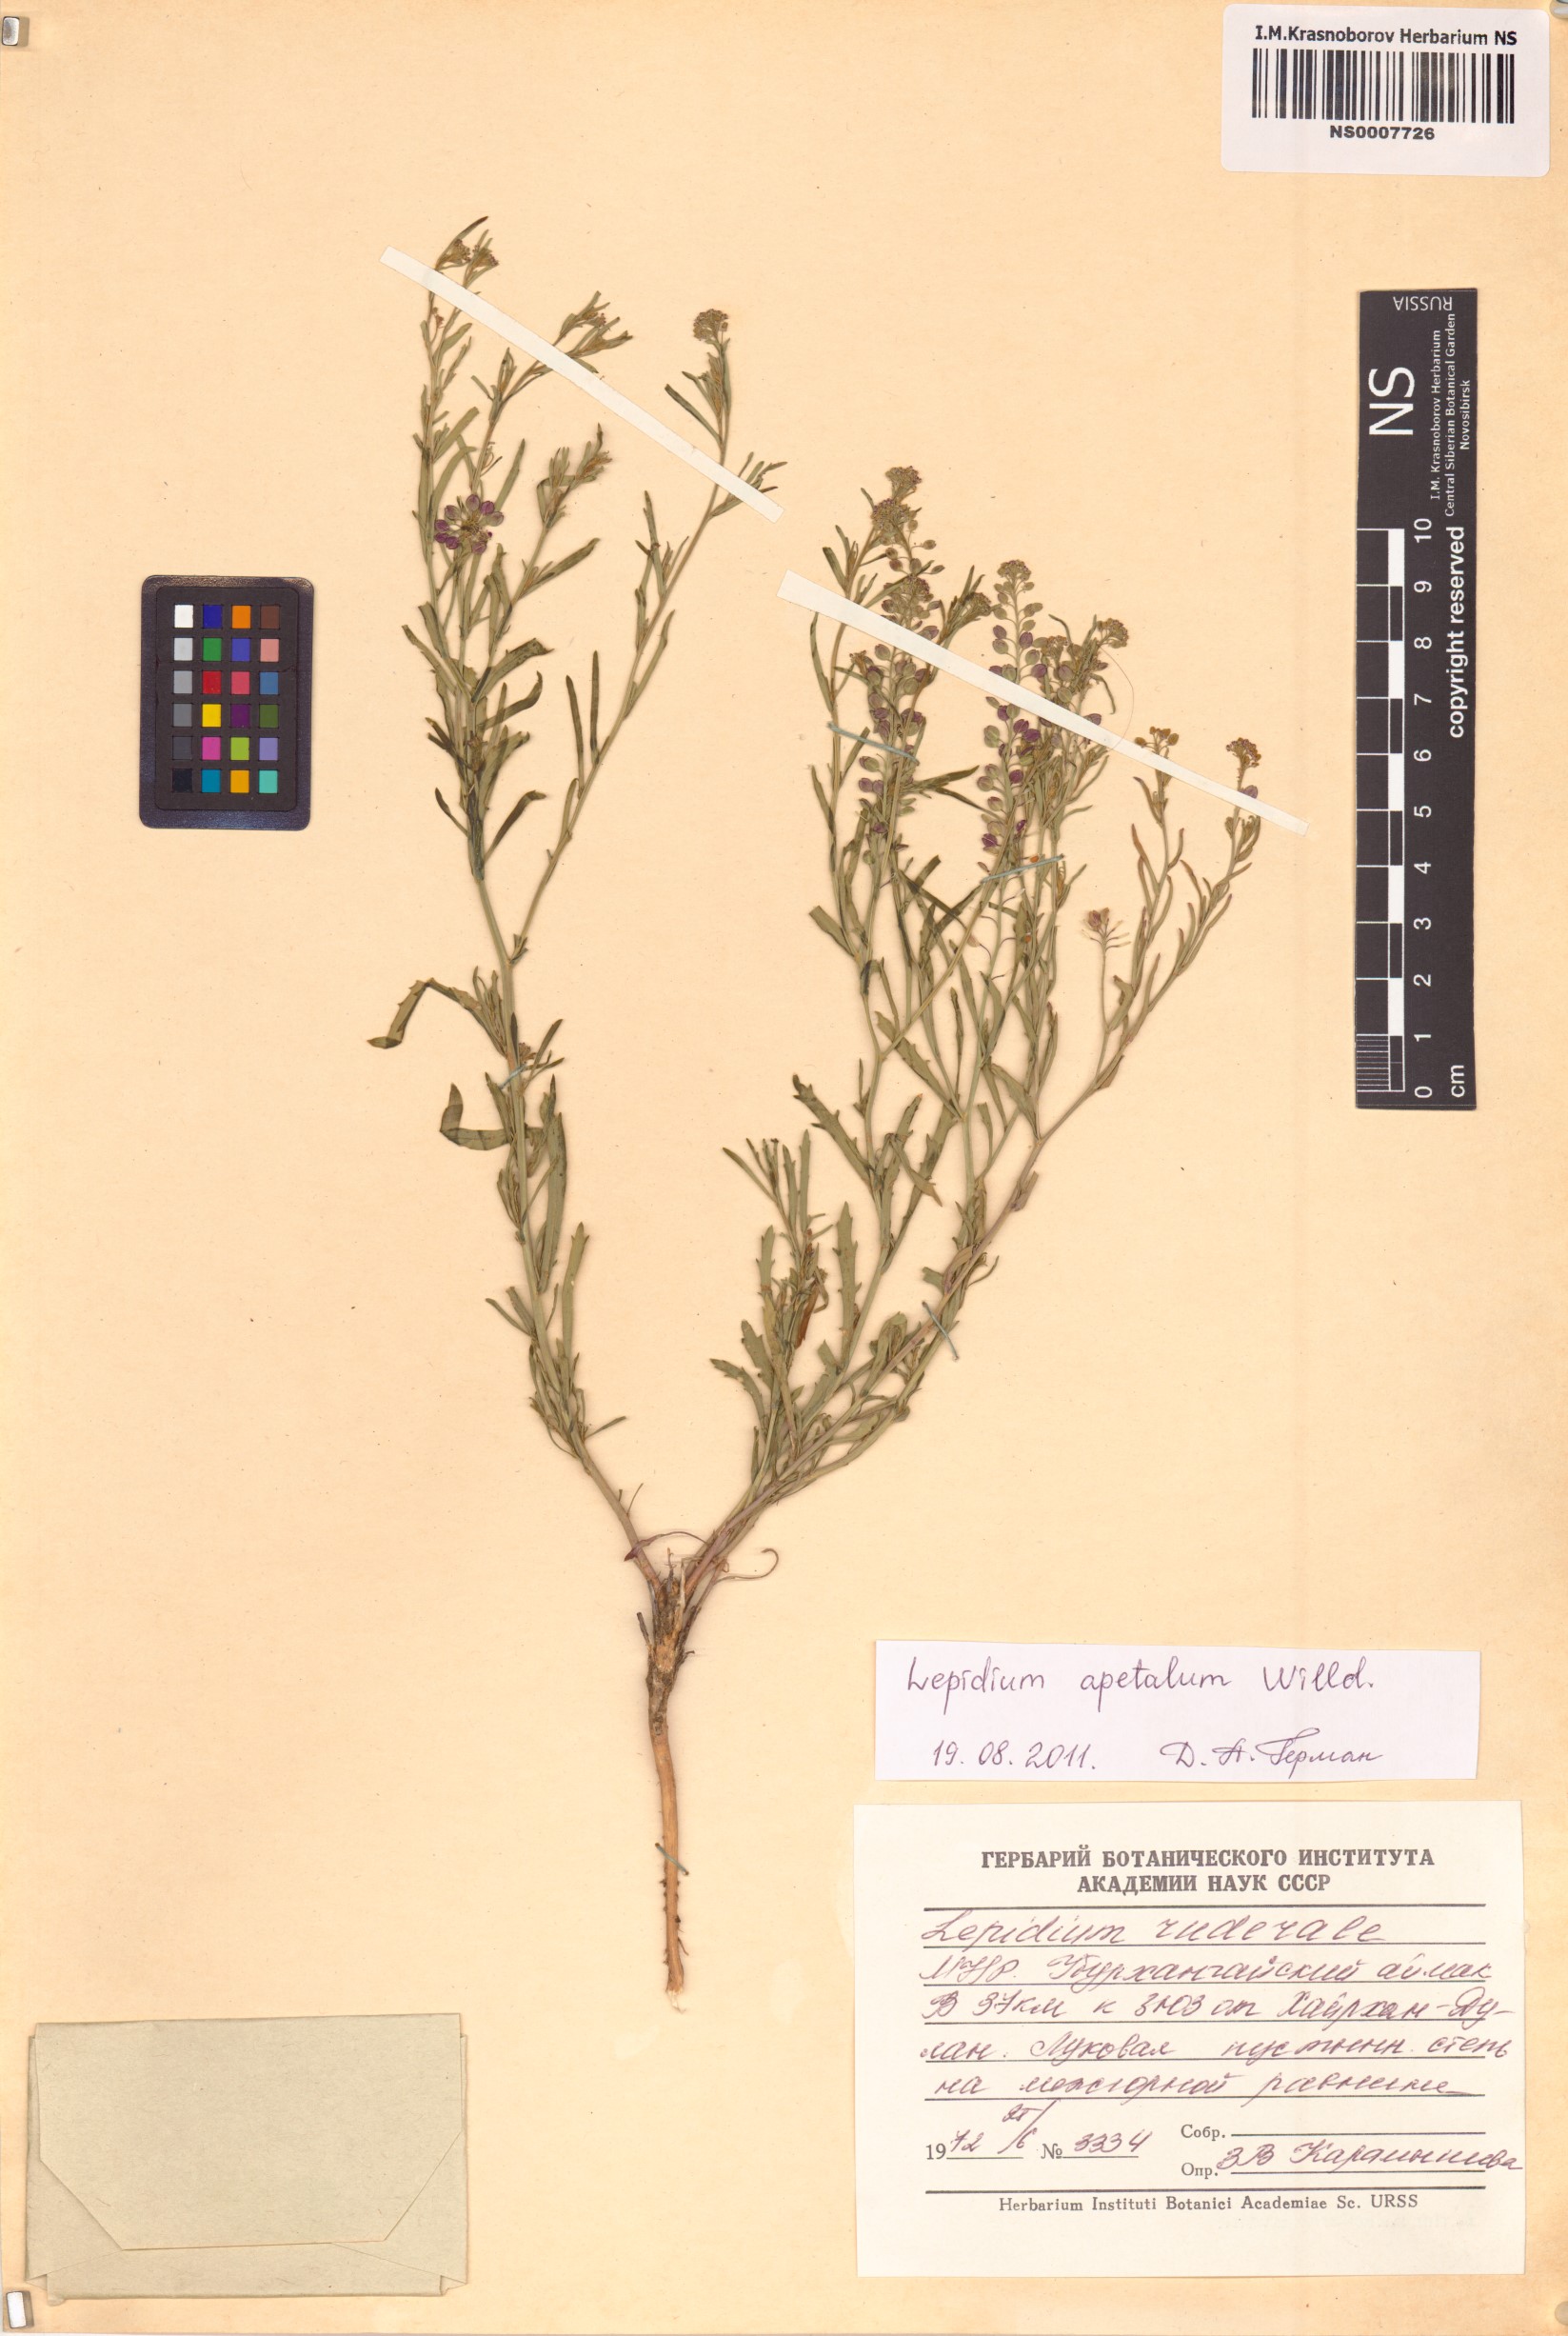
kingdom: Plantae
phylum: Tracheophyta
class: Magnoliopsida
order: Brassicales
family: Brassicaceae
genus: Lepidium
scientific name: Lepidium apetalum
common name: Pepperweed
